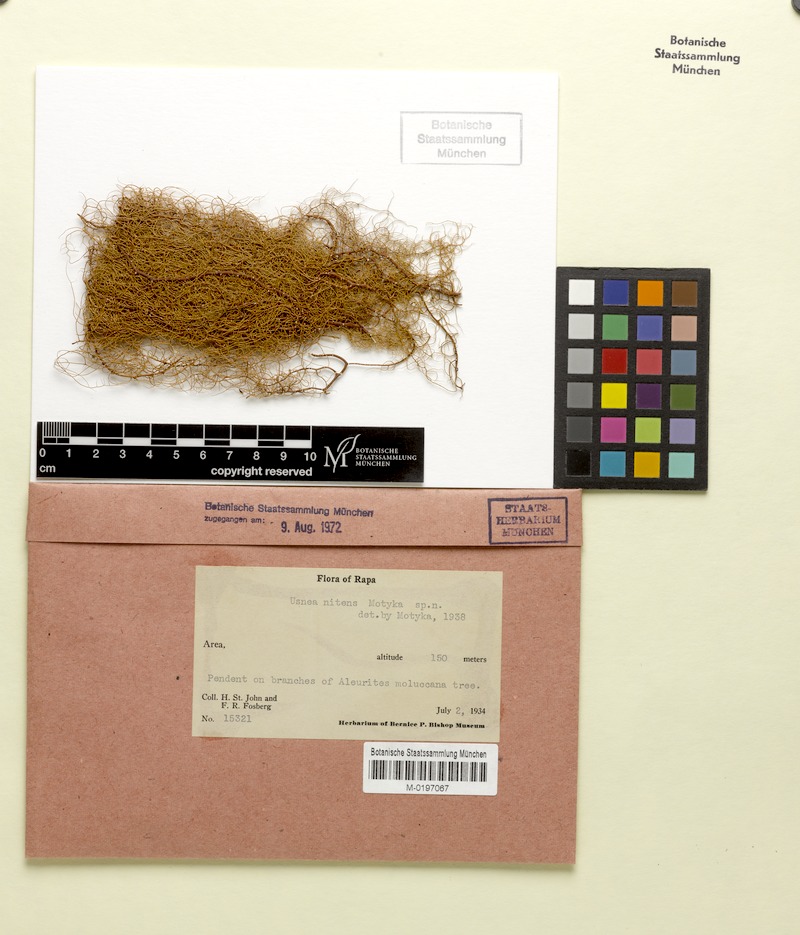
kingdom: Fungi
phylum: Ascomycota
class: Lecanoromycetes
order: Lecanorales
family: Parmeliaceae
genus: Usnea
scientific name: Usnea
